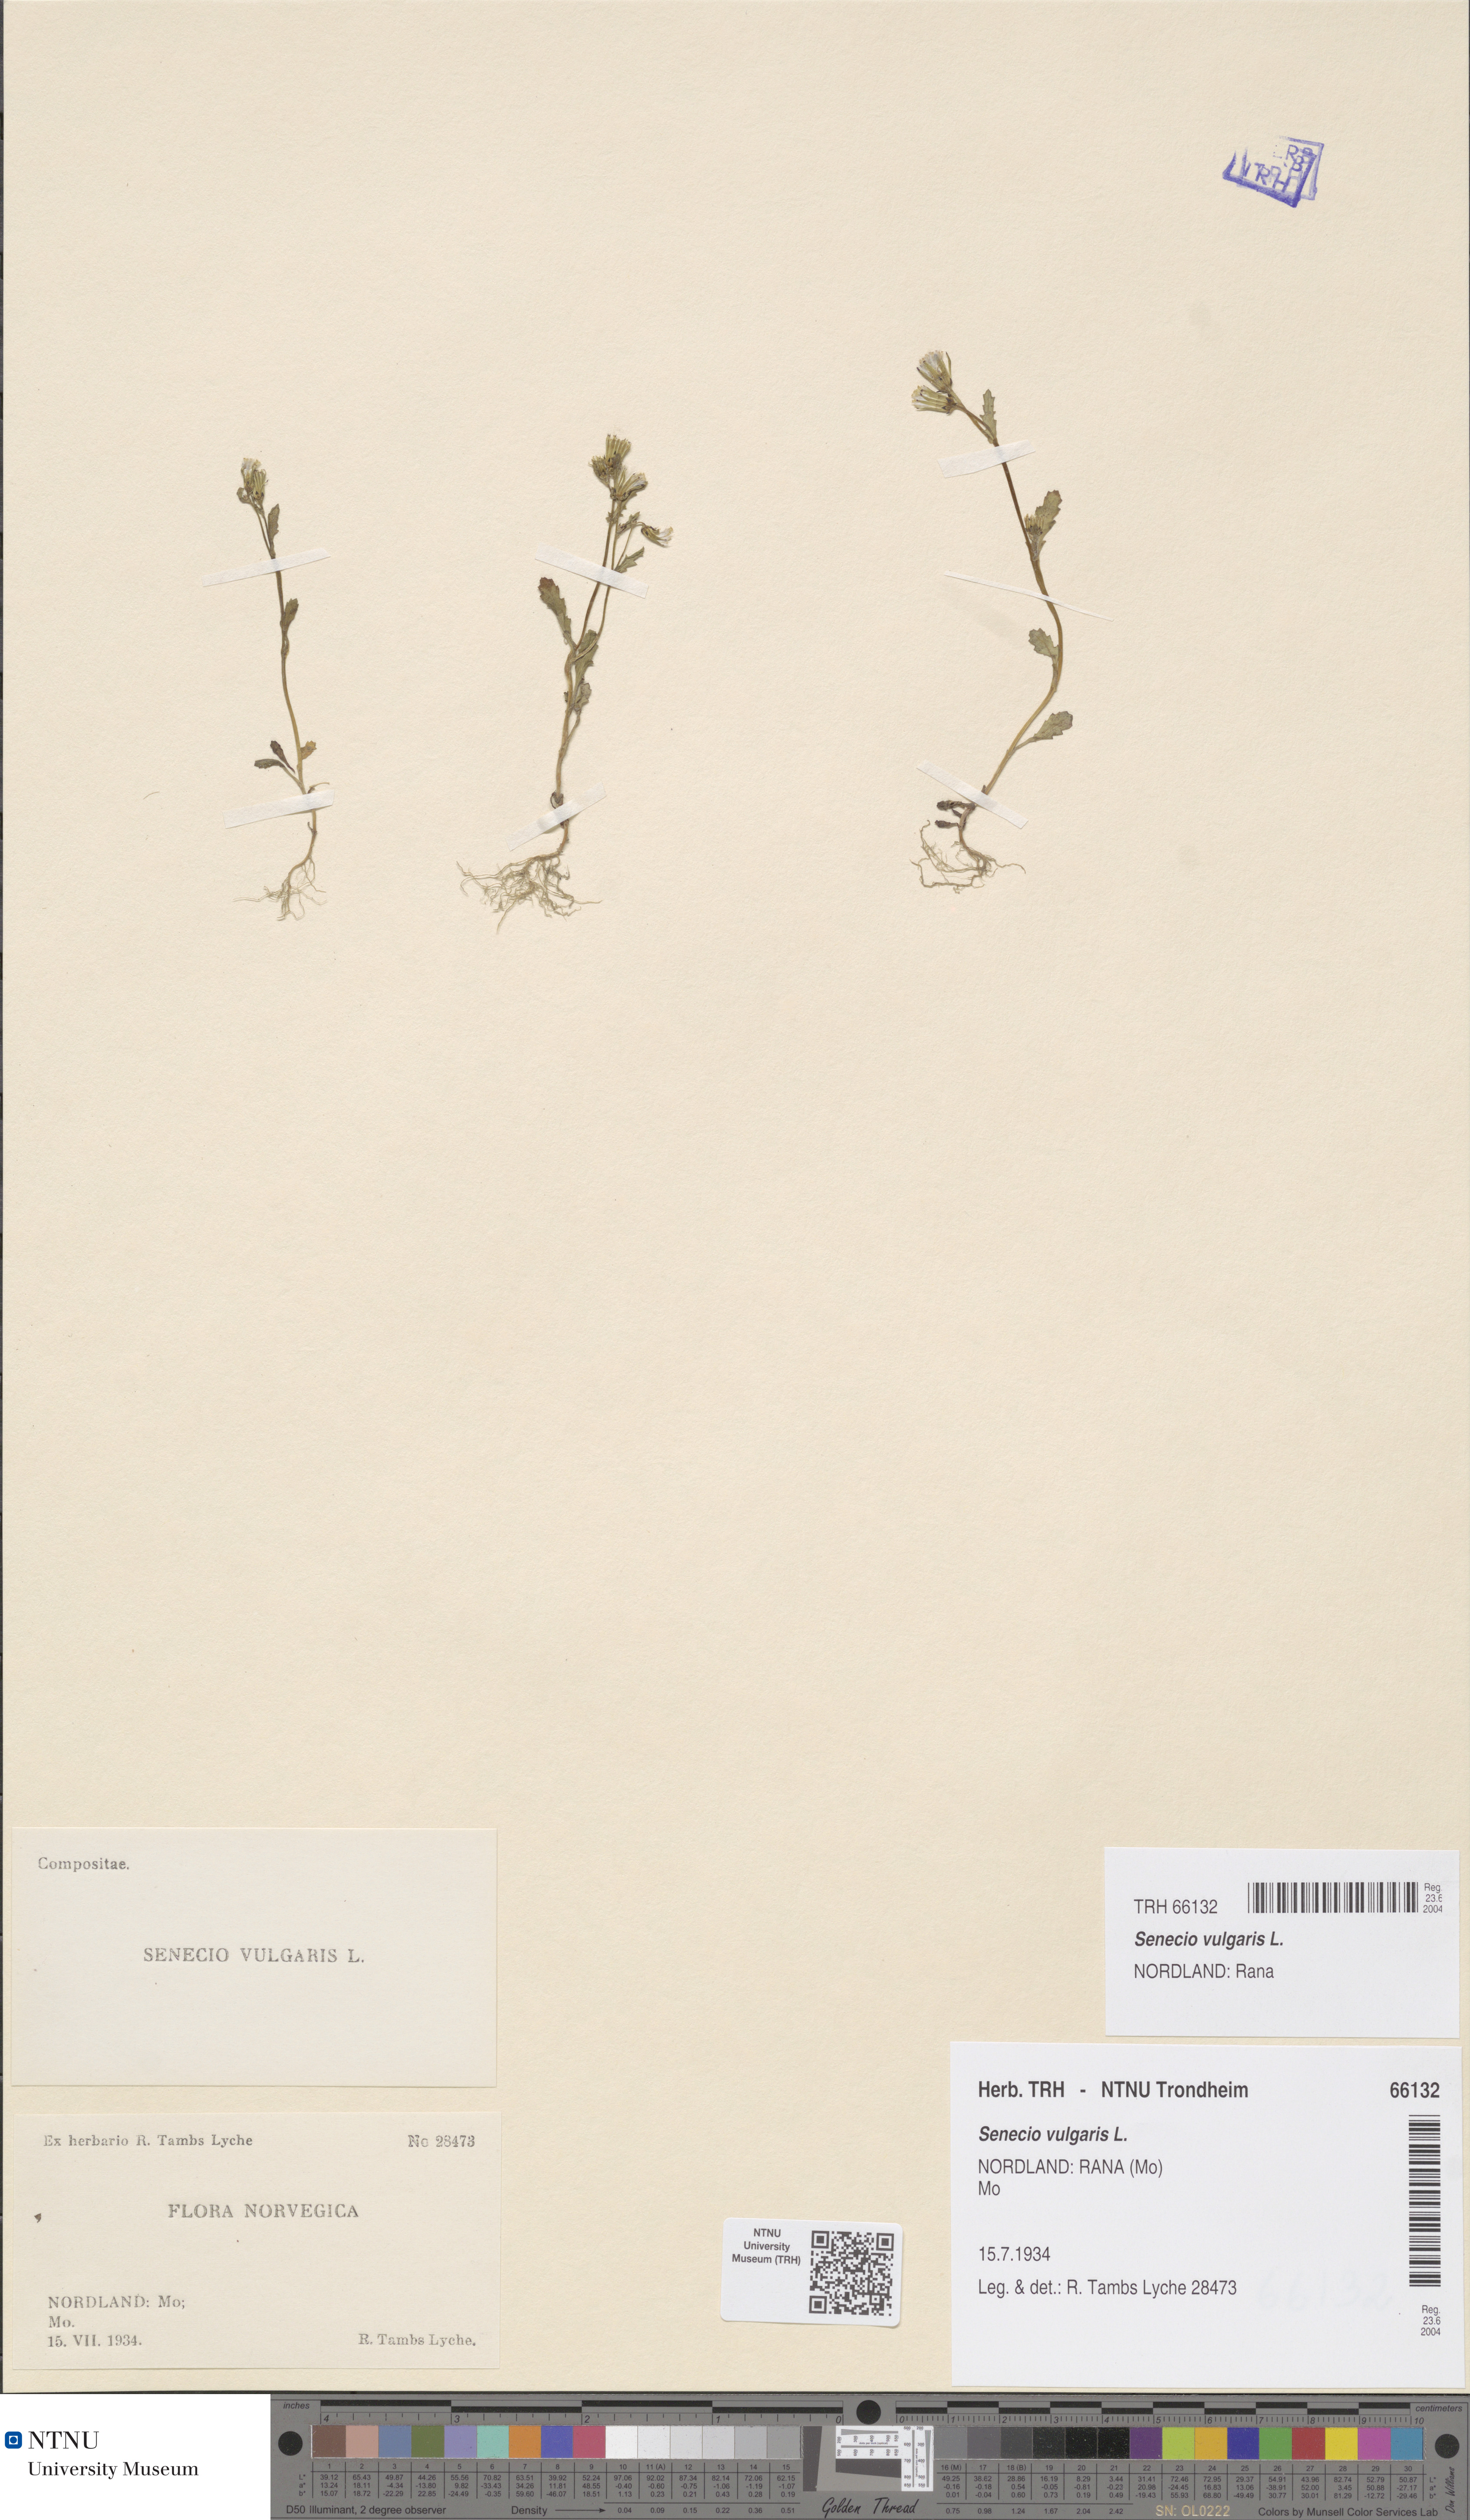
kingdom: Plantae
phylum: Tracheophyta
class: Magnoliopsida
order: Asterales
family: Asteraceae
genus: Senecio
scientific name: Senecio vulgaris
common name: Old-man-in-the-spring
